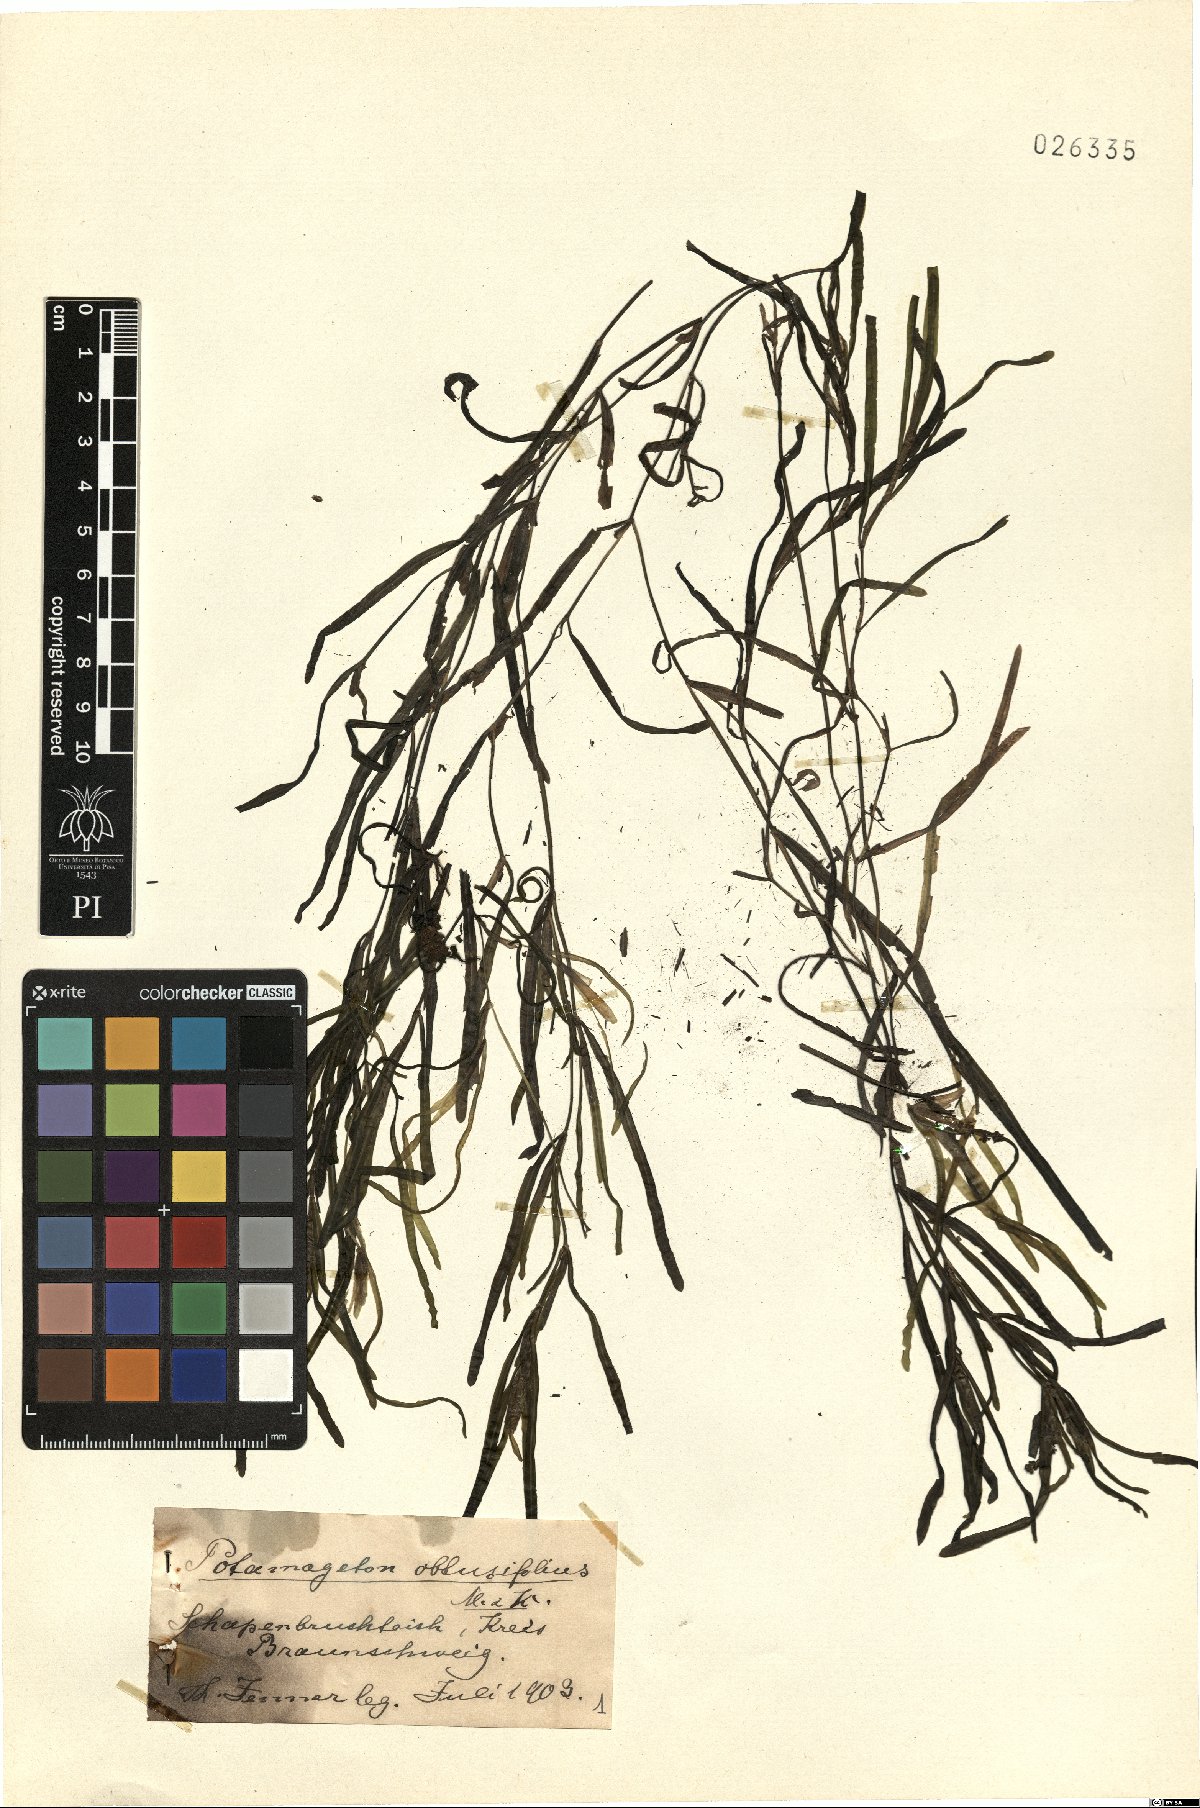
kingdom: Plantae
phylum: Tracheophyta
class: Liliopsida
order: Alismatales
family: Potamogetonaceae
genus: Potamogeton
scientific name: Potamogeton obtusifolius
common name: Blunt-leaved pondweed
